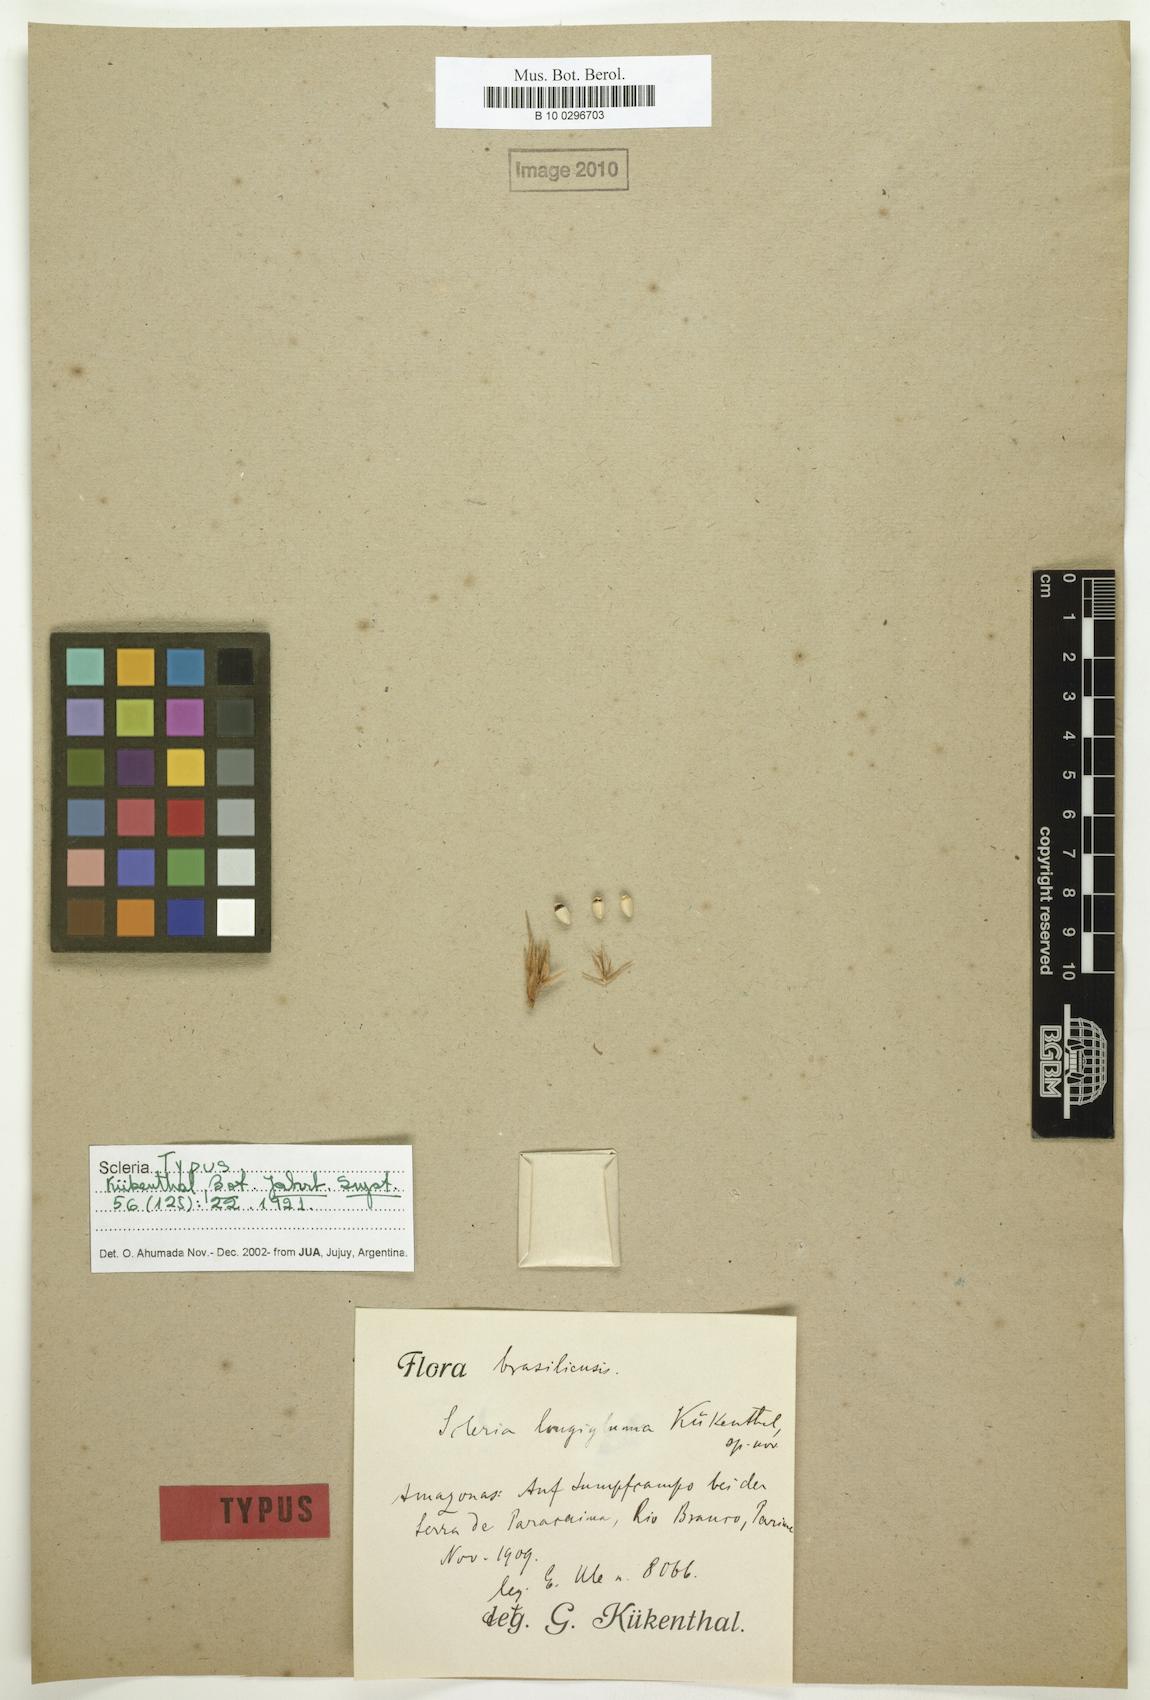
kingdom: Plantae
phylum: Tracheophyta
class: Liliopsida
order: Poales
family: Cyperaceae
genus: Scleria
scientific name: Scleria melanomphala
